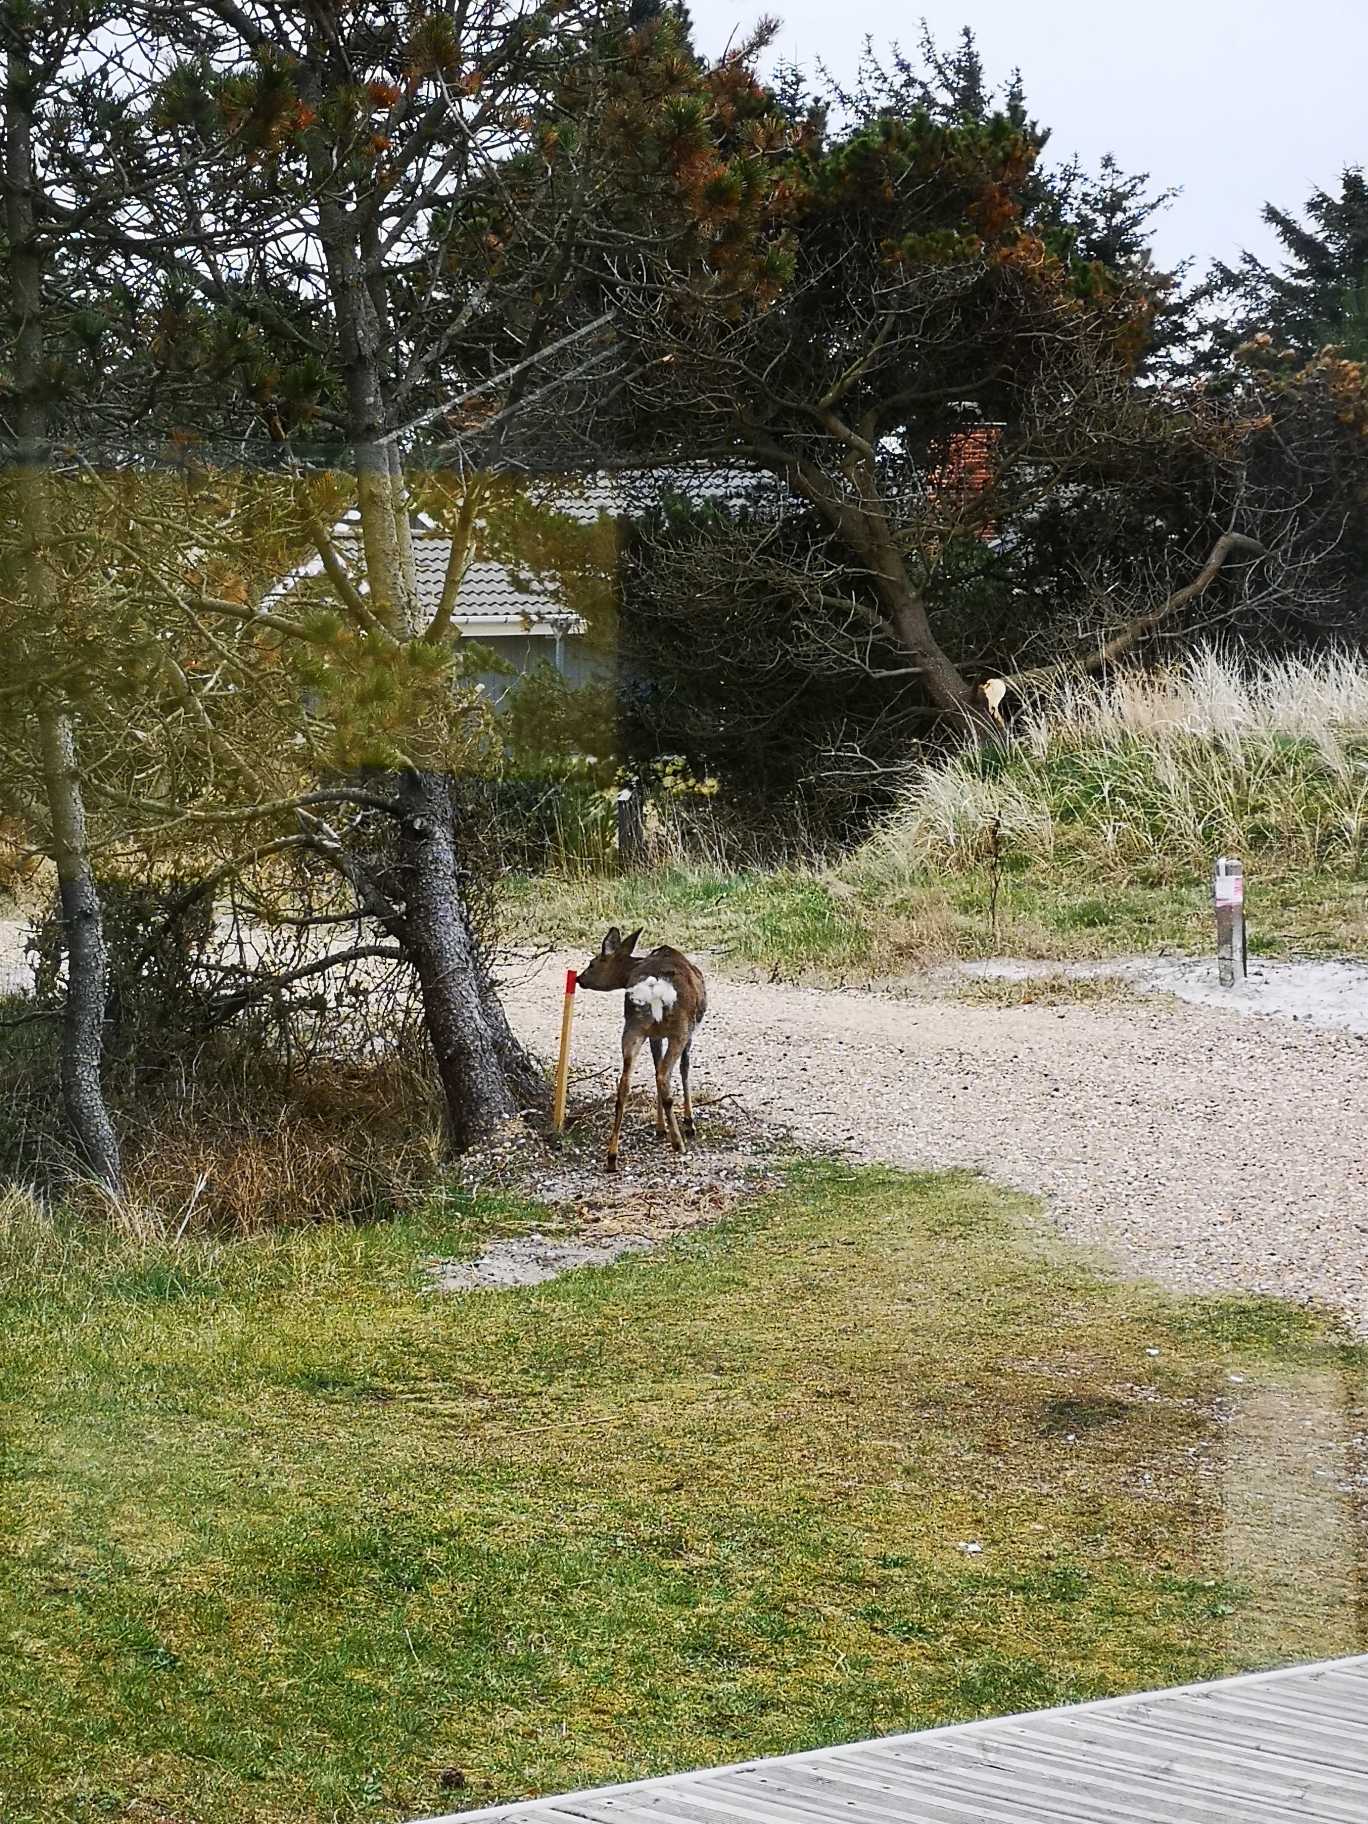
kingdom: Animalia
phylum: Chordata
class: Mammalia
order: Artiodactyla
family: Cervidae
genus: Capreolus
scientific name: Capreolus capreolus
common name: Rådyr
